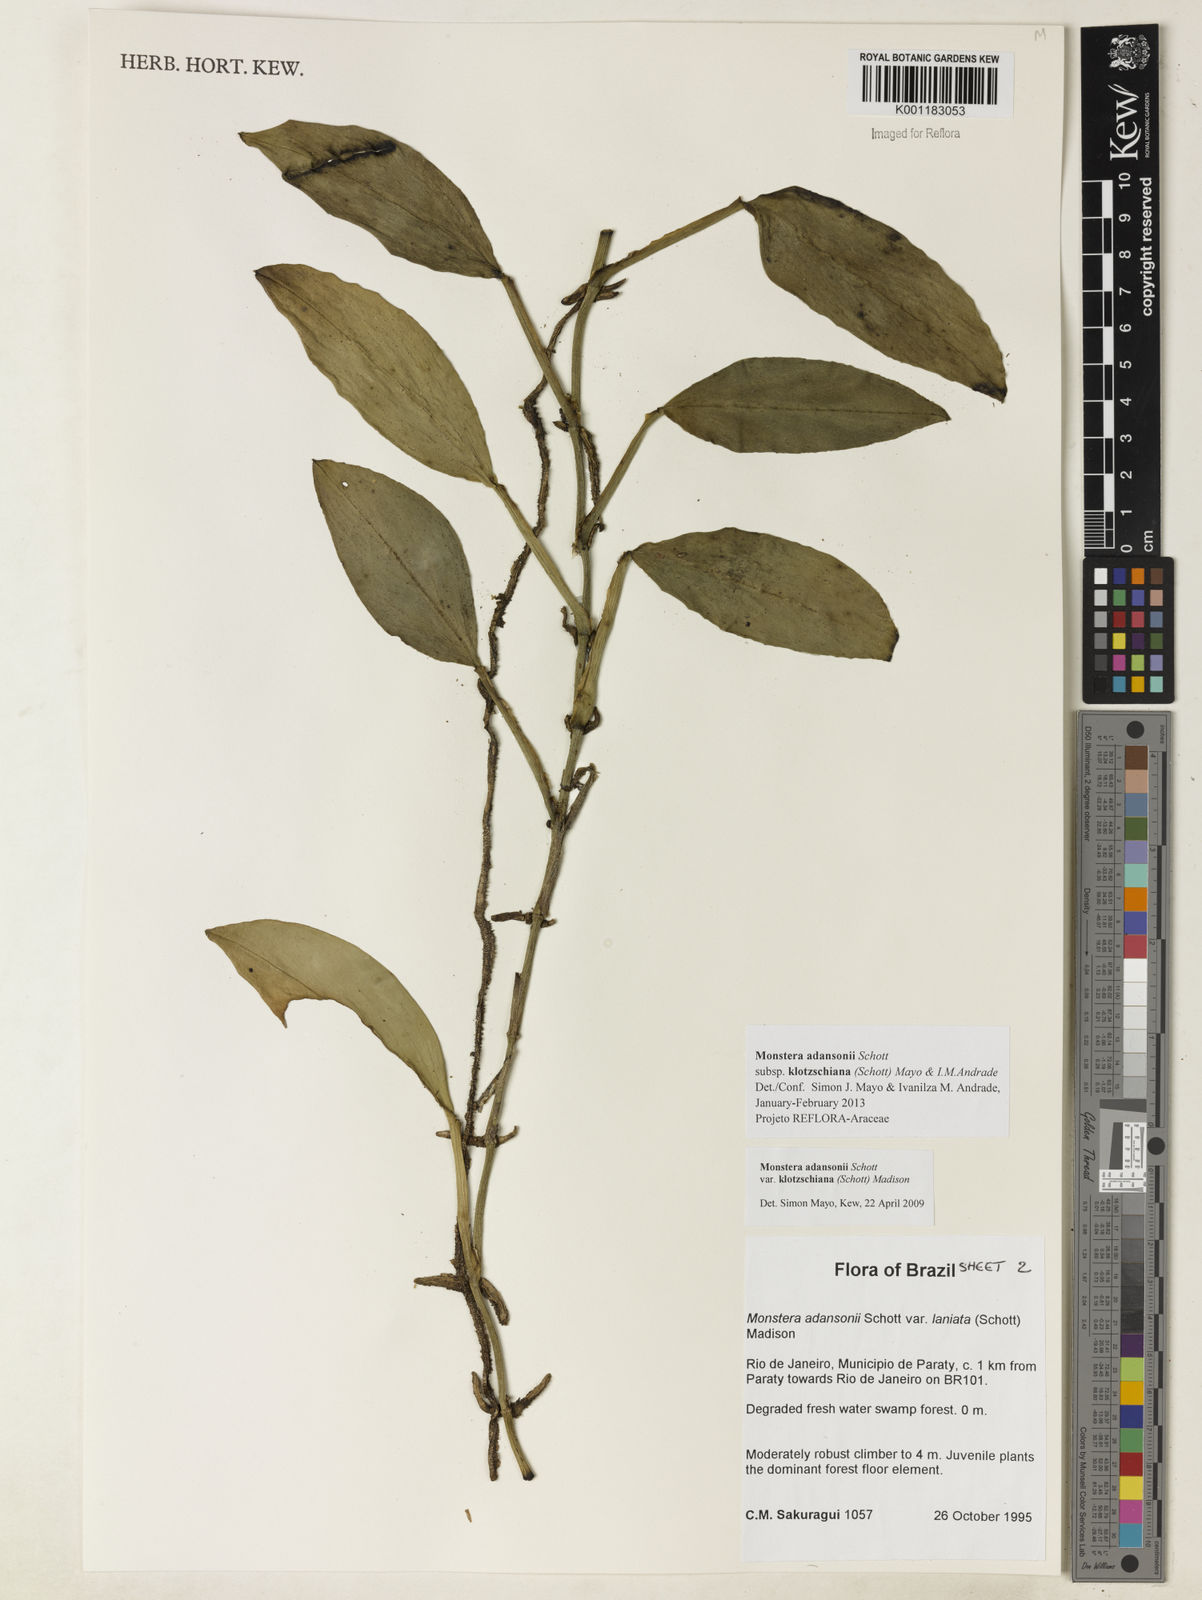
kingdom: Plantae
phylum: Tracheophyta
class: Liliopsida
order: Alismatales
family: Araceae
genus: Monstera
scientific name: Monstera adansonii
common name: Tarovine
